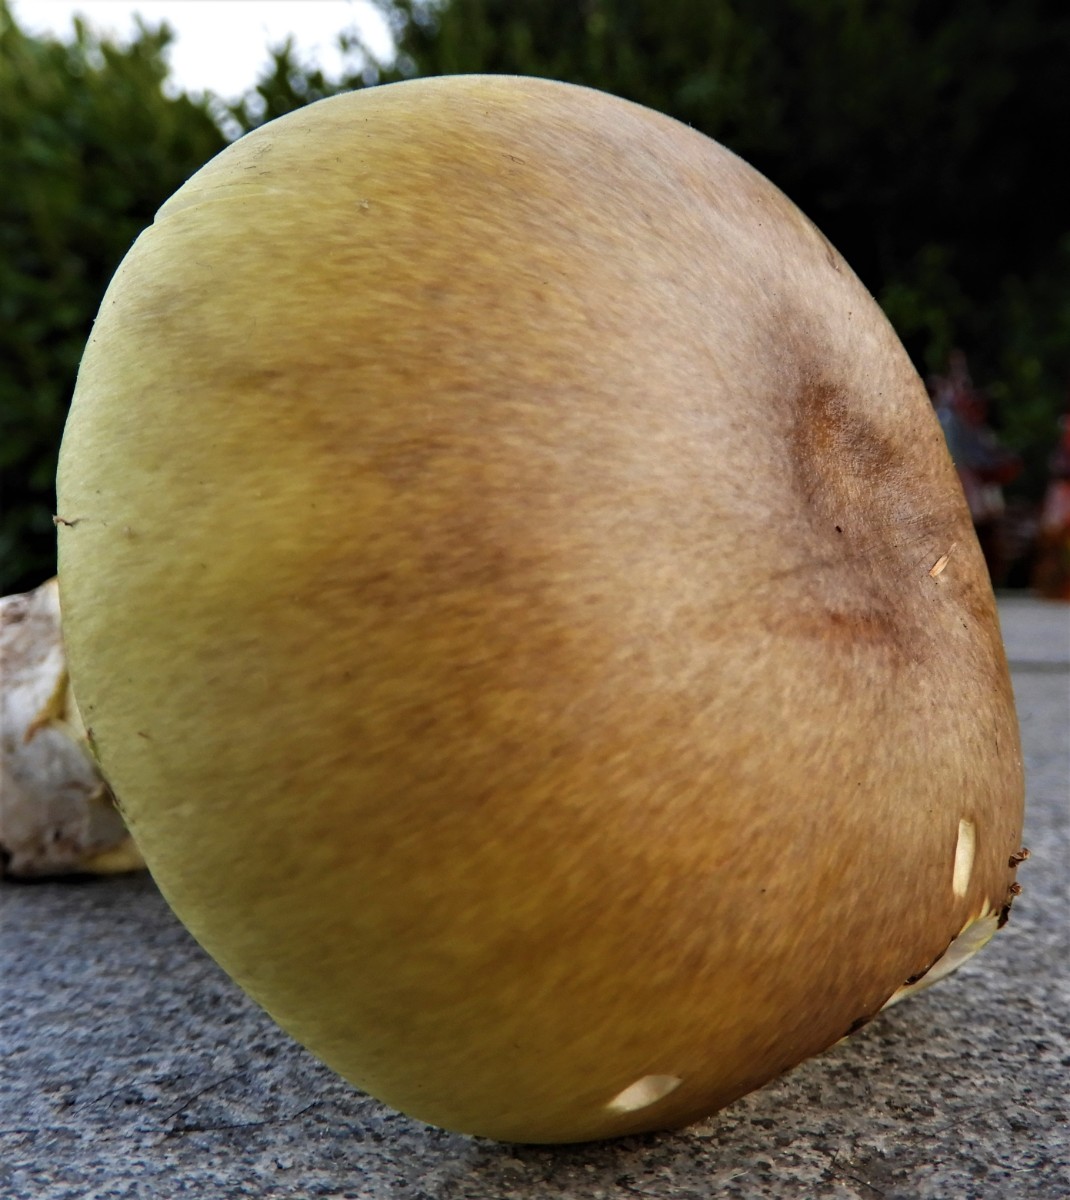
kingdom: Fungi
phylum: Basidiomycota
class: Agaricomycetes
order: Agaricales
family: Amanitaceae
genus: Amanita
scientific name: Amanita phalloides
